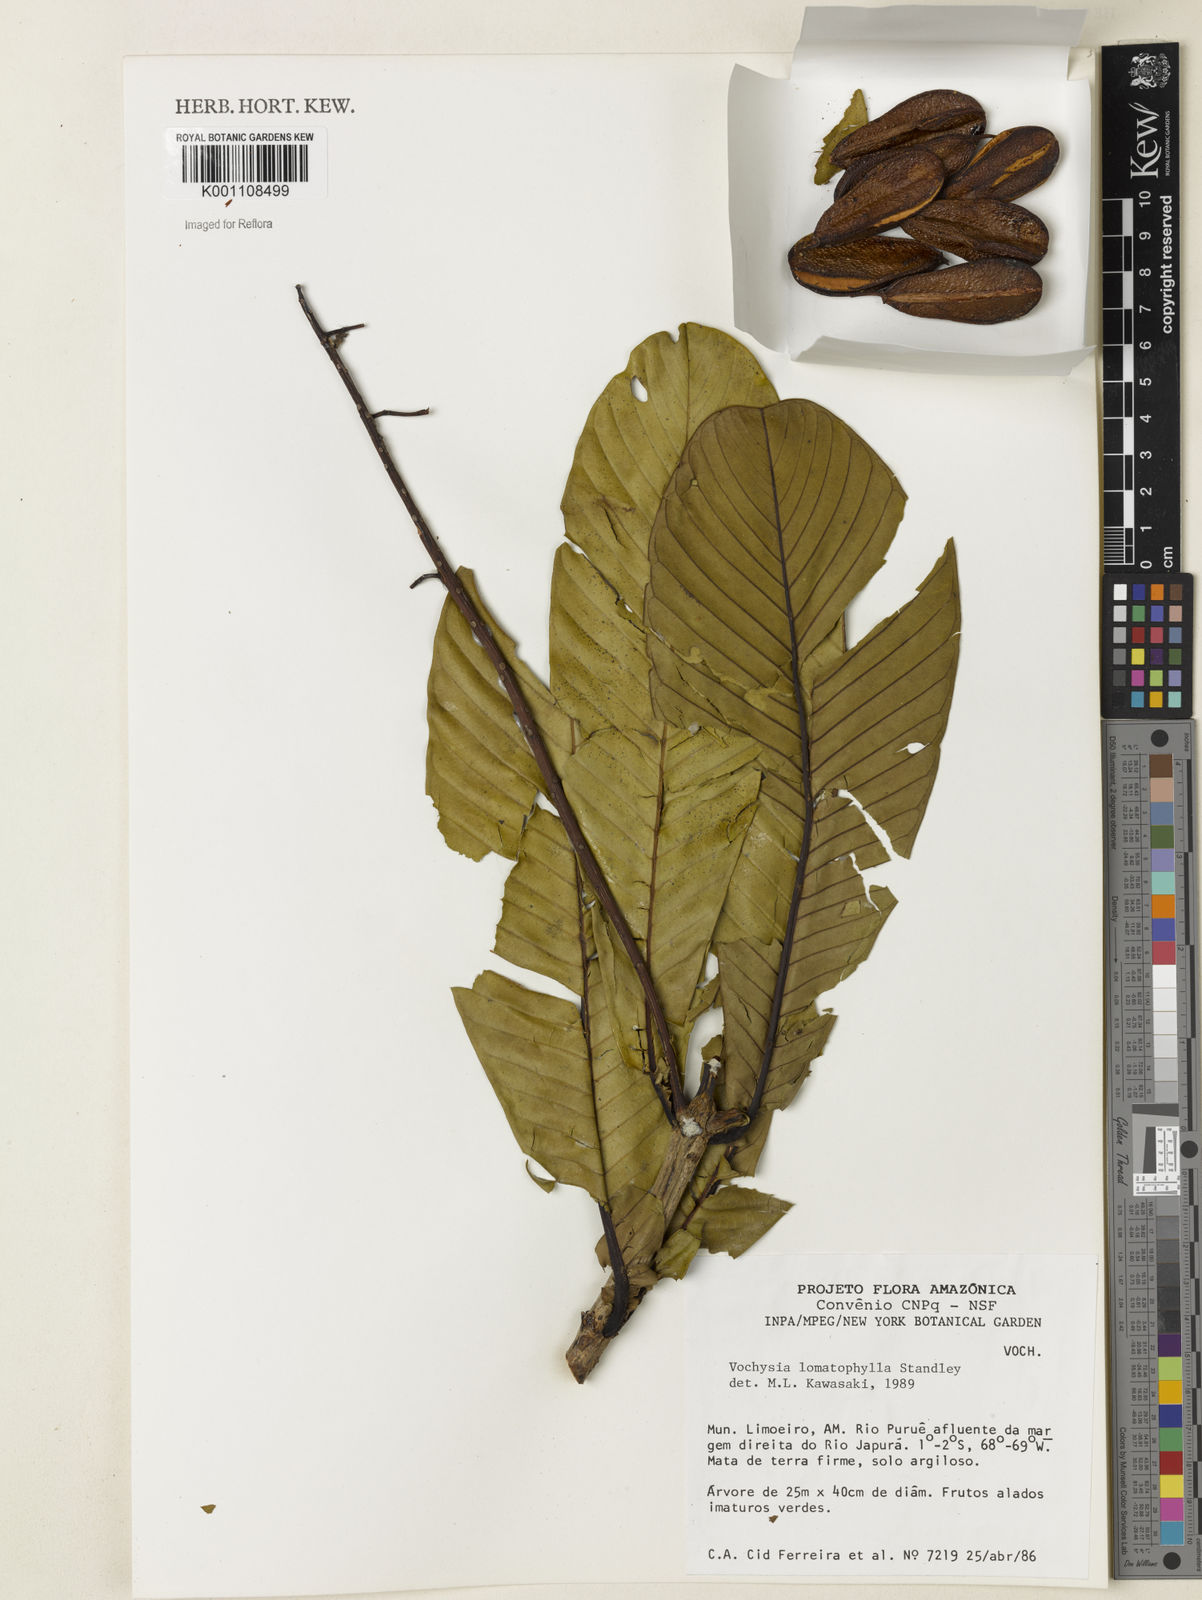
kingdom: Plantae
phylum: Tracheophyta
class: Magnoliopsida
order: Myrtales
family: Vochysiaceae
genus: Vochysia
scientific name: Vochysia lomatophylla
